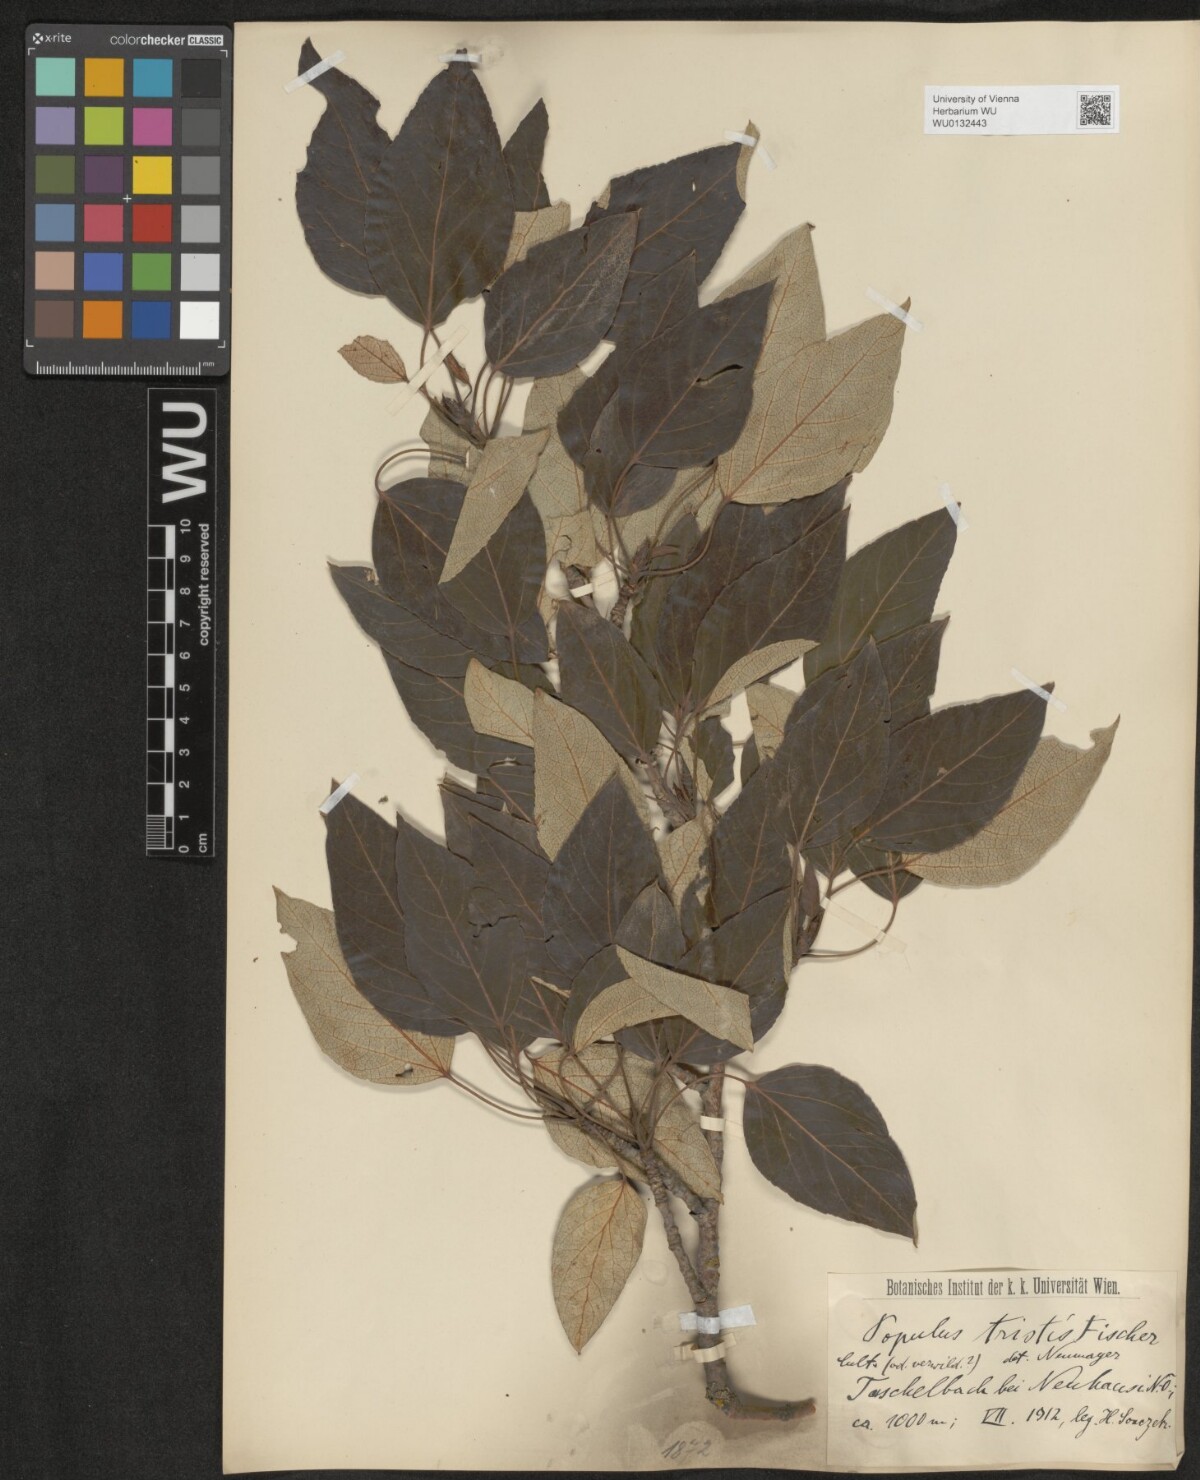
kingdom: Plantae
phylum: Tracheophyta
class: Magnoliopsida
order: Malpighiales
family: Salicaceae
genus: Populus
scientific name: Populus trichocarpa
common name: Black cottonwood
